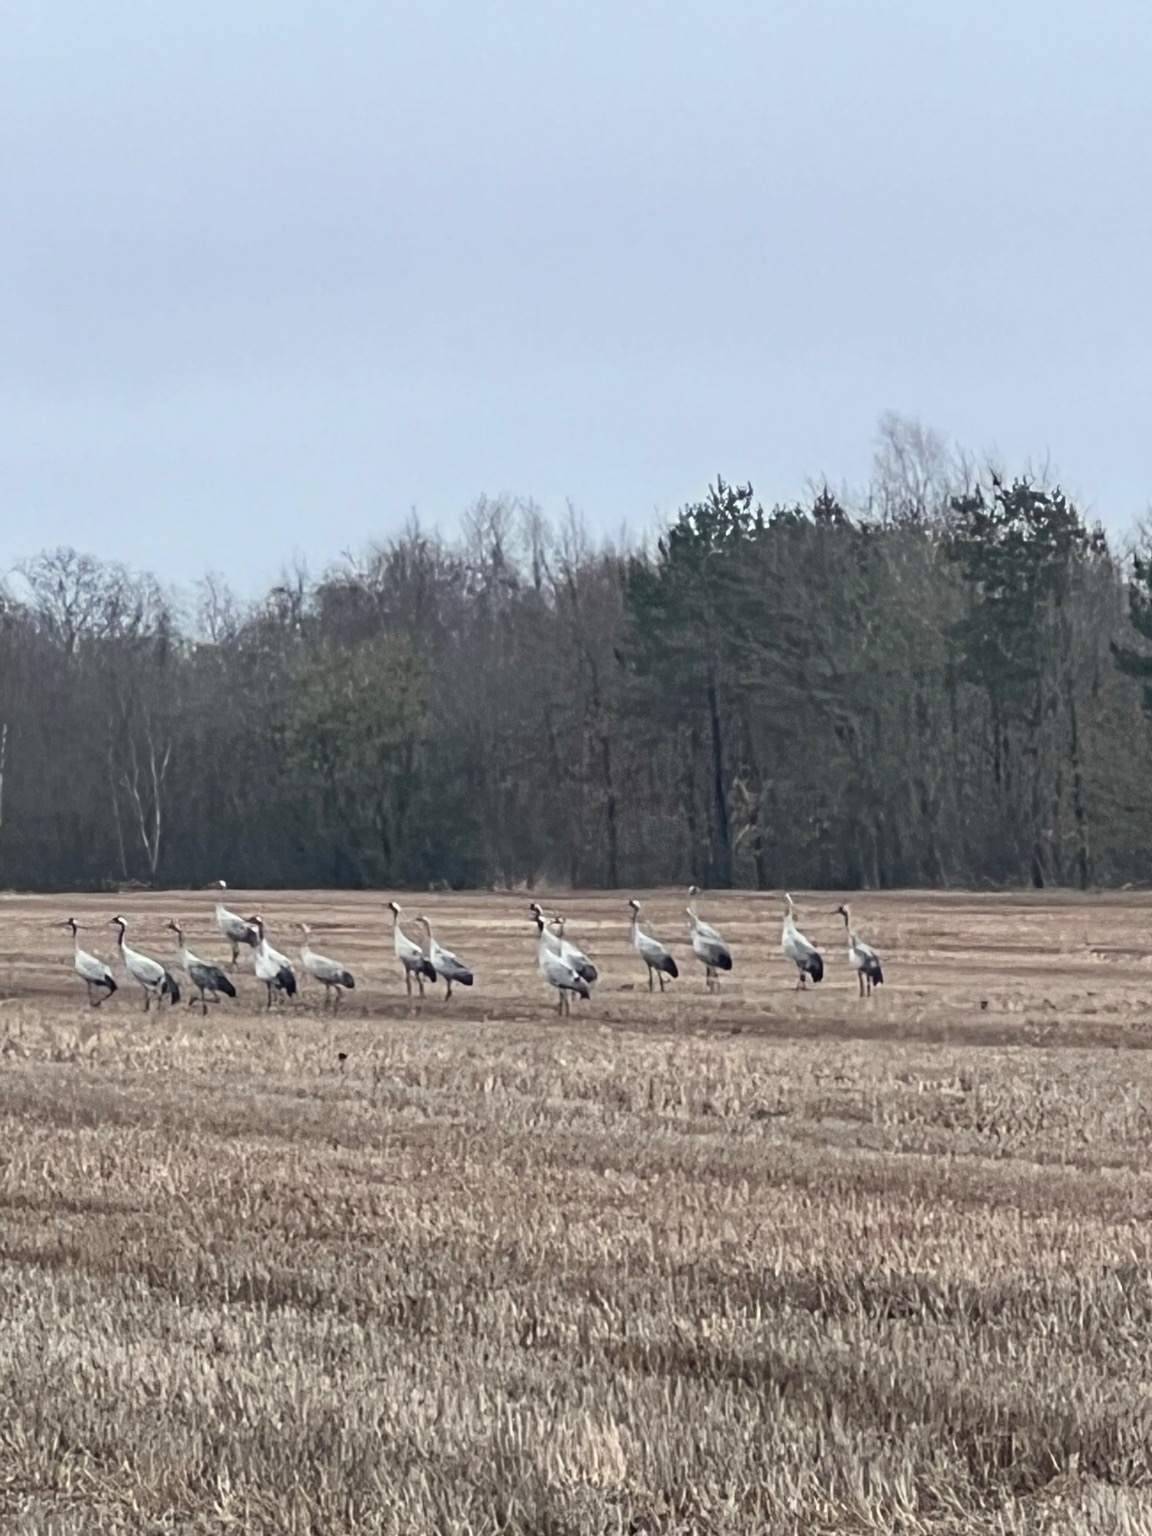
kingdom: Animalia
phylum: Chordata
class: Aves
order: Gruiformes
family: Gruidae
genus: Grus
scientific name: Grus grus
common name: Trane
